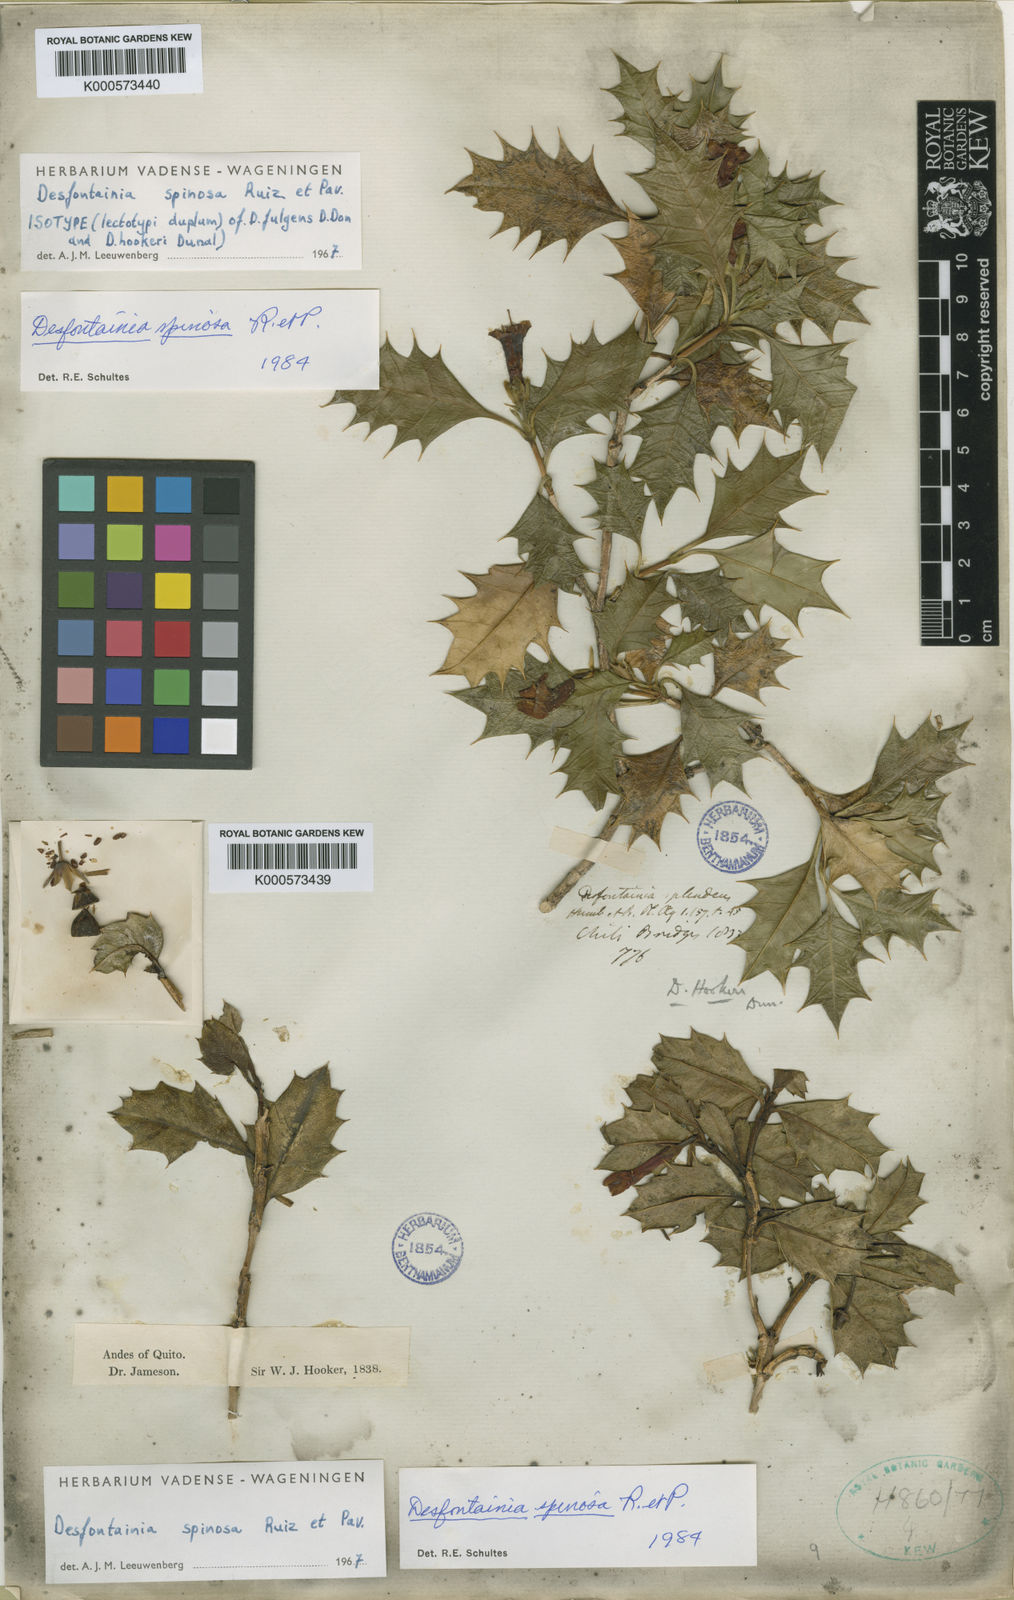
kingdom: Plantae
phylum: Tracheophyta
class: Magnoliopsida
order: Bruniales
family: Columelliaceae
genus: Desfontainia
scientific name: Desfontainia fulgens
